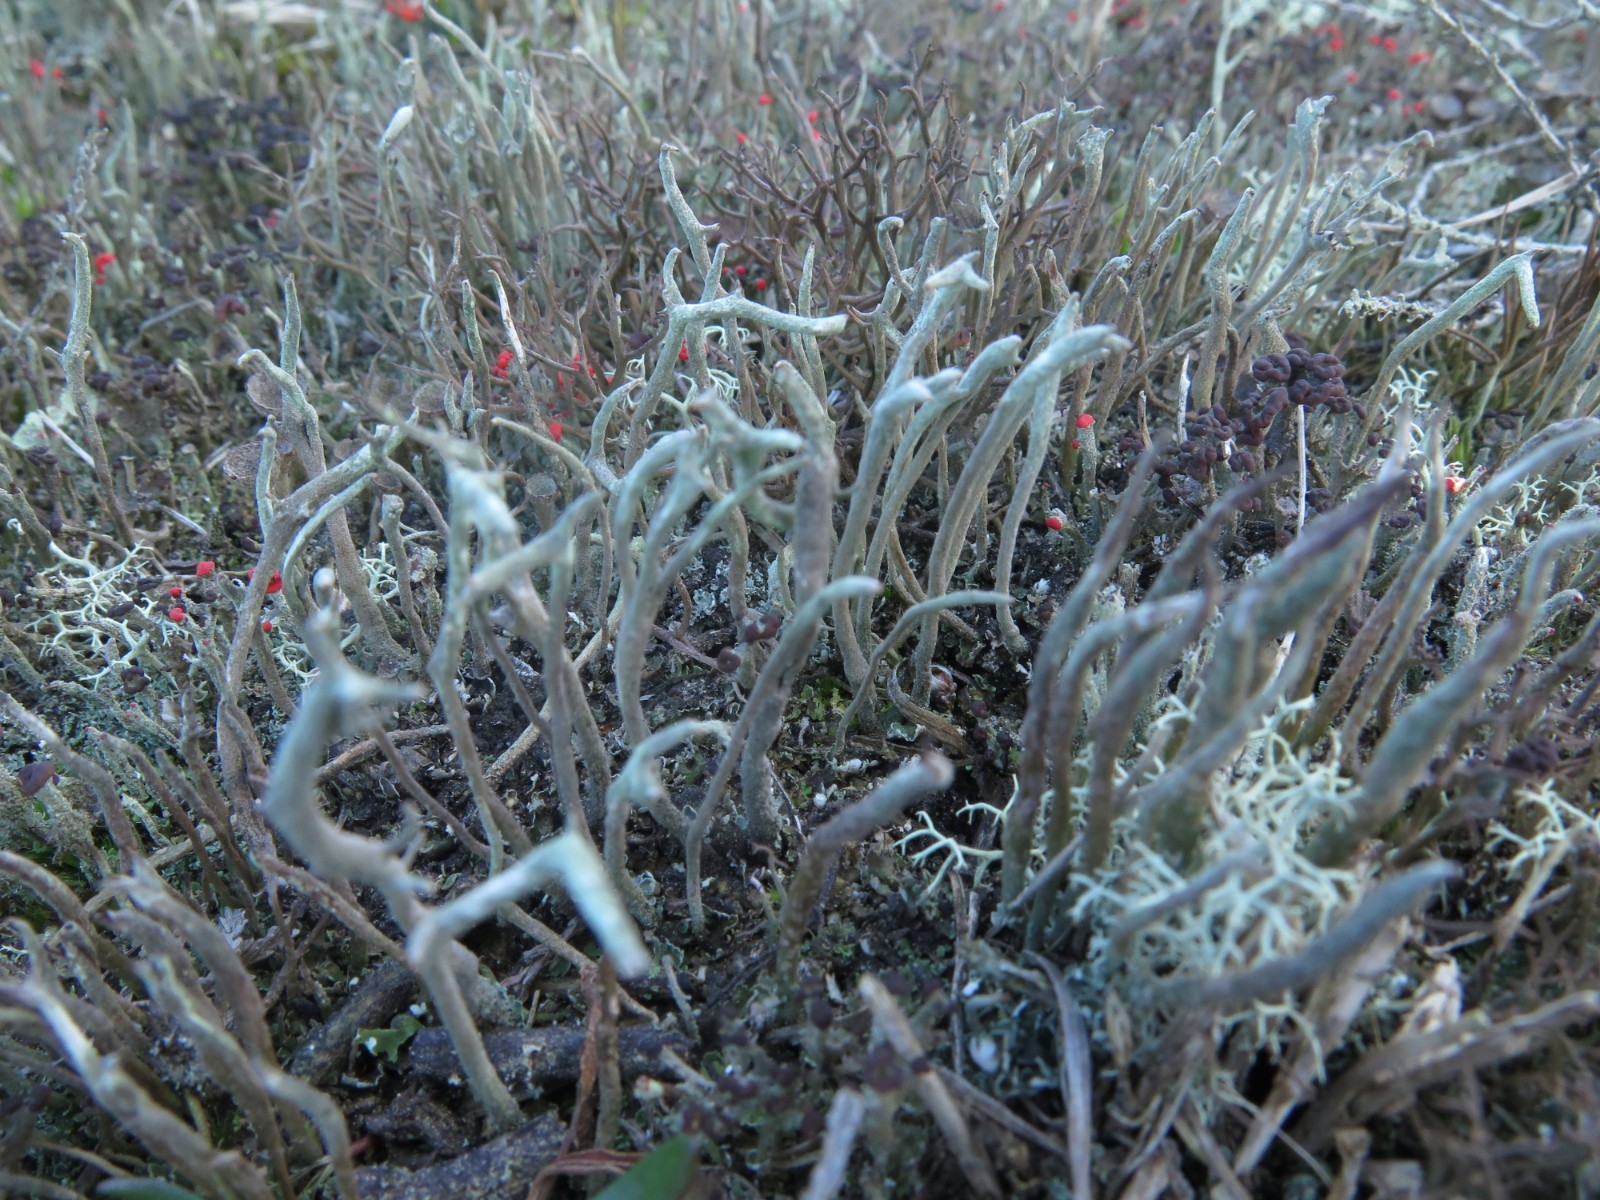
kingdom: Fungi
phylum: Ascomycota
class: Lecanoromycetes
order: Lecanorales
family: Cladoniaceae
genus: Cladonia
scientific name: Cladonia macilenta
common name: indsvunden bægerlav
